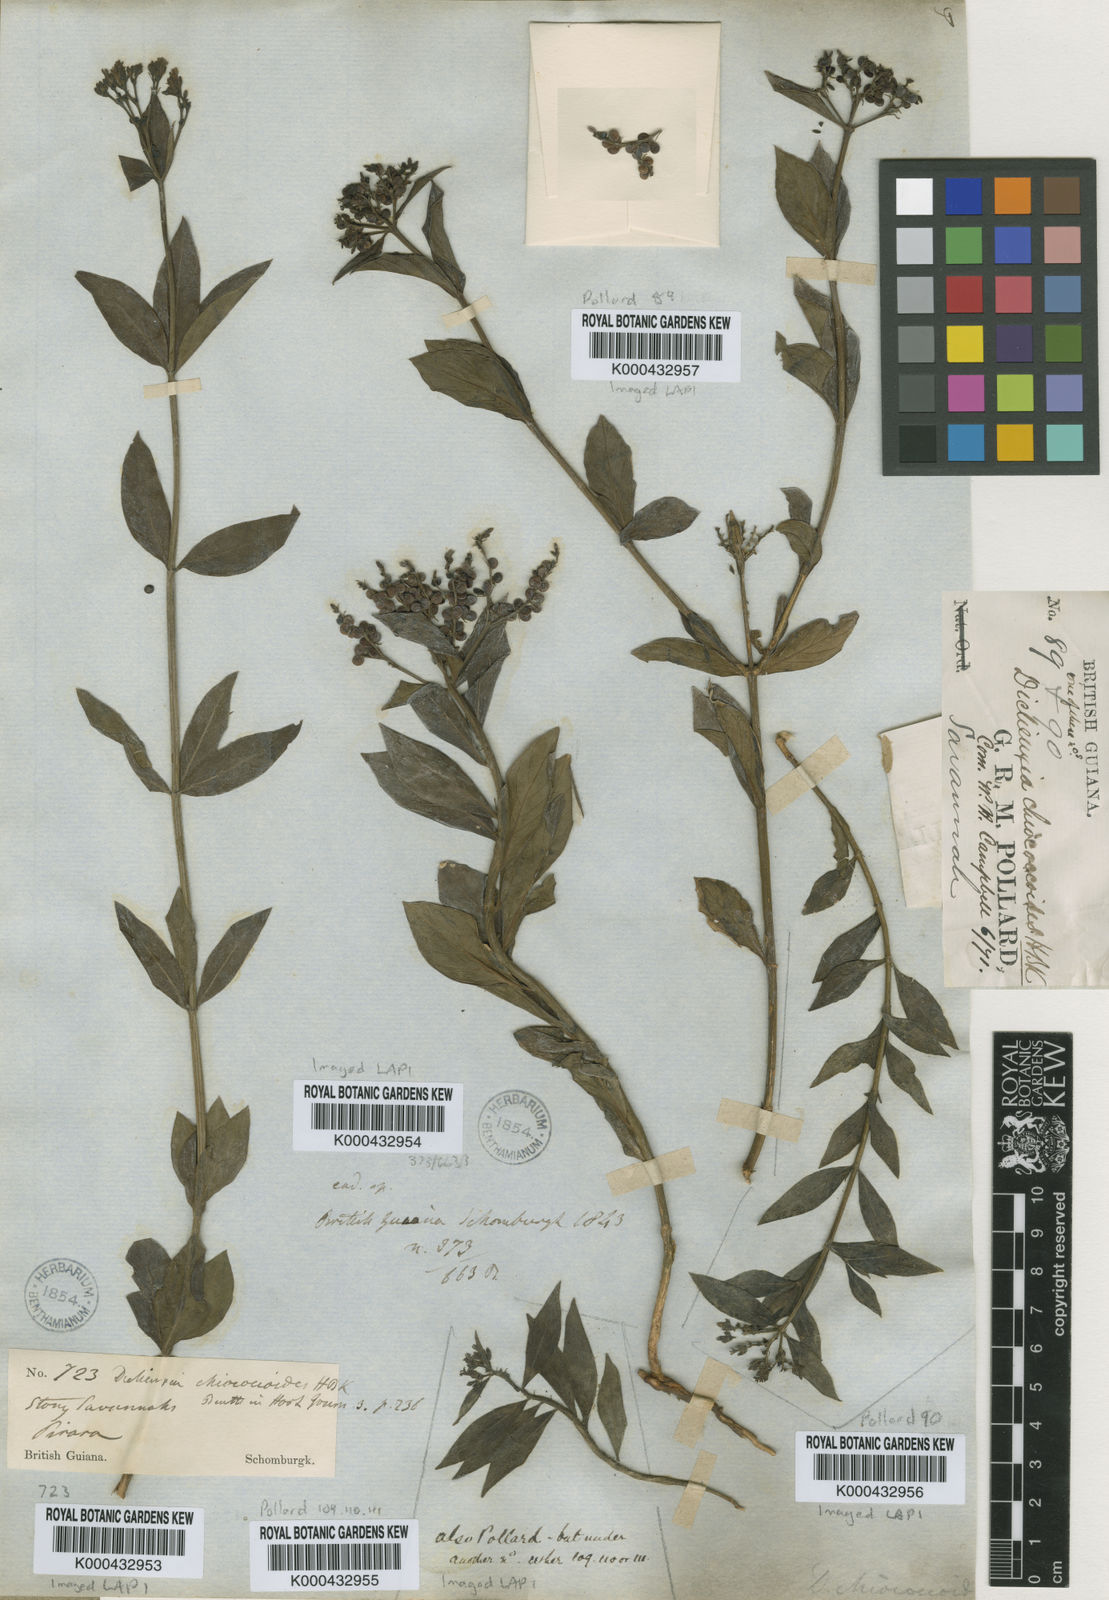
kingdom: Plantae
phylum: Tracheophyta
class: Magnoliopsida
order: Gentianales
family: Rubiaceae
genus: Declieuxia
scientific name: Declieuxia fruticosa
